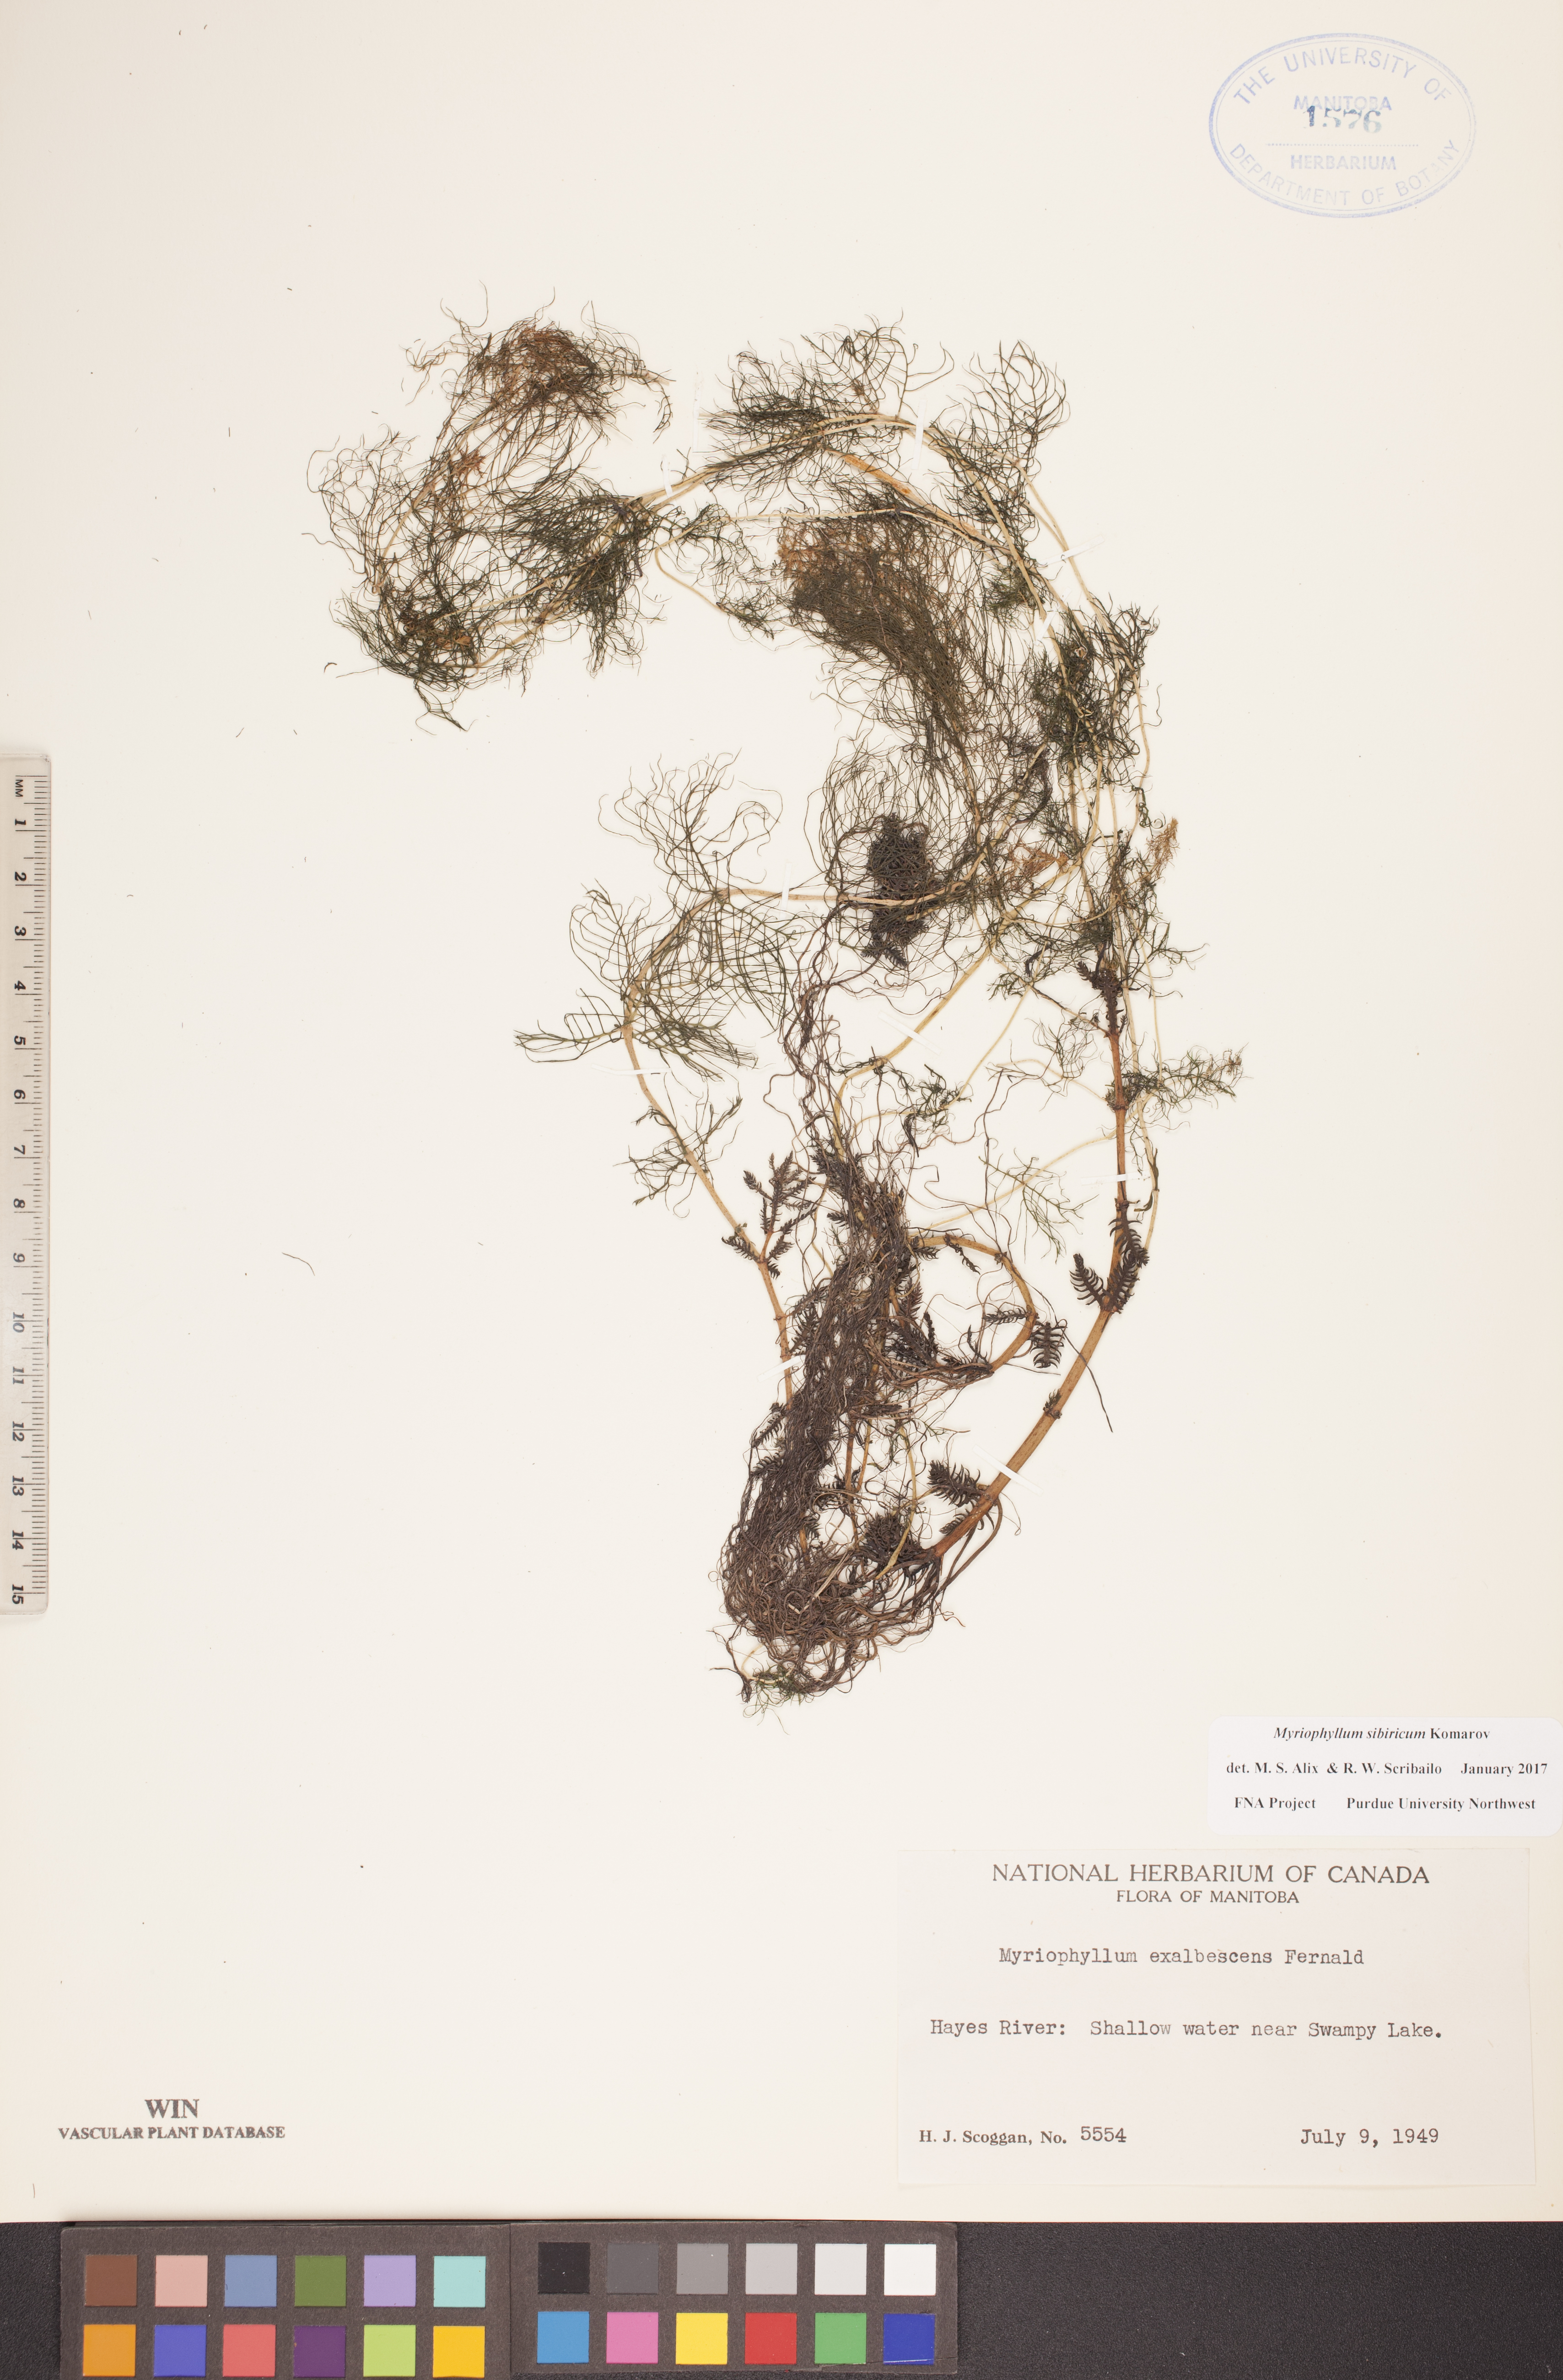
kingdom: Plantae
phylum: Tracheophyta
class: Magnoliopsida
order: Saxifragales
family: Haloragaceae
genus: Myriophyllum
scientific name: Myriophyllum sibiricum
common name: Siberian water-milfoil
